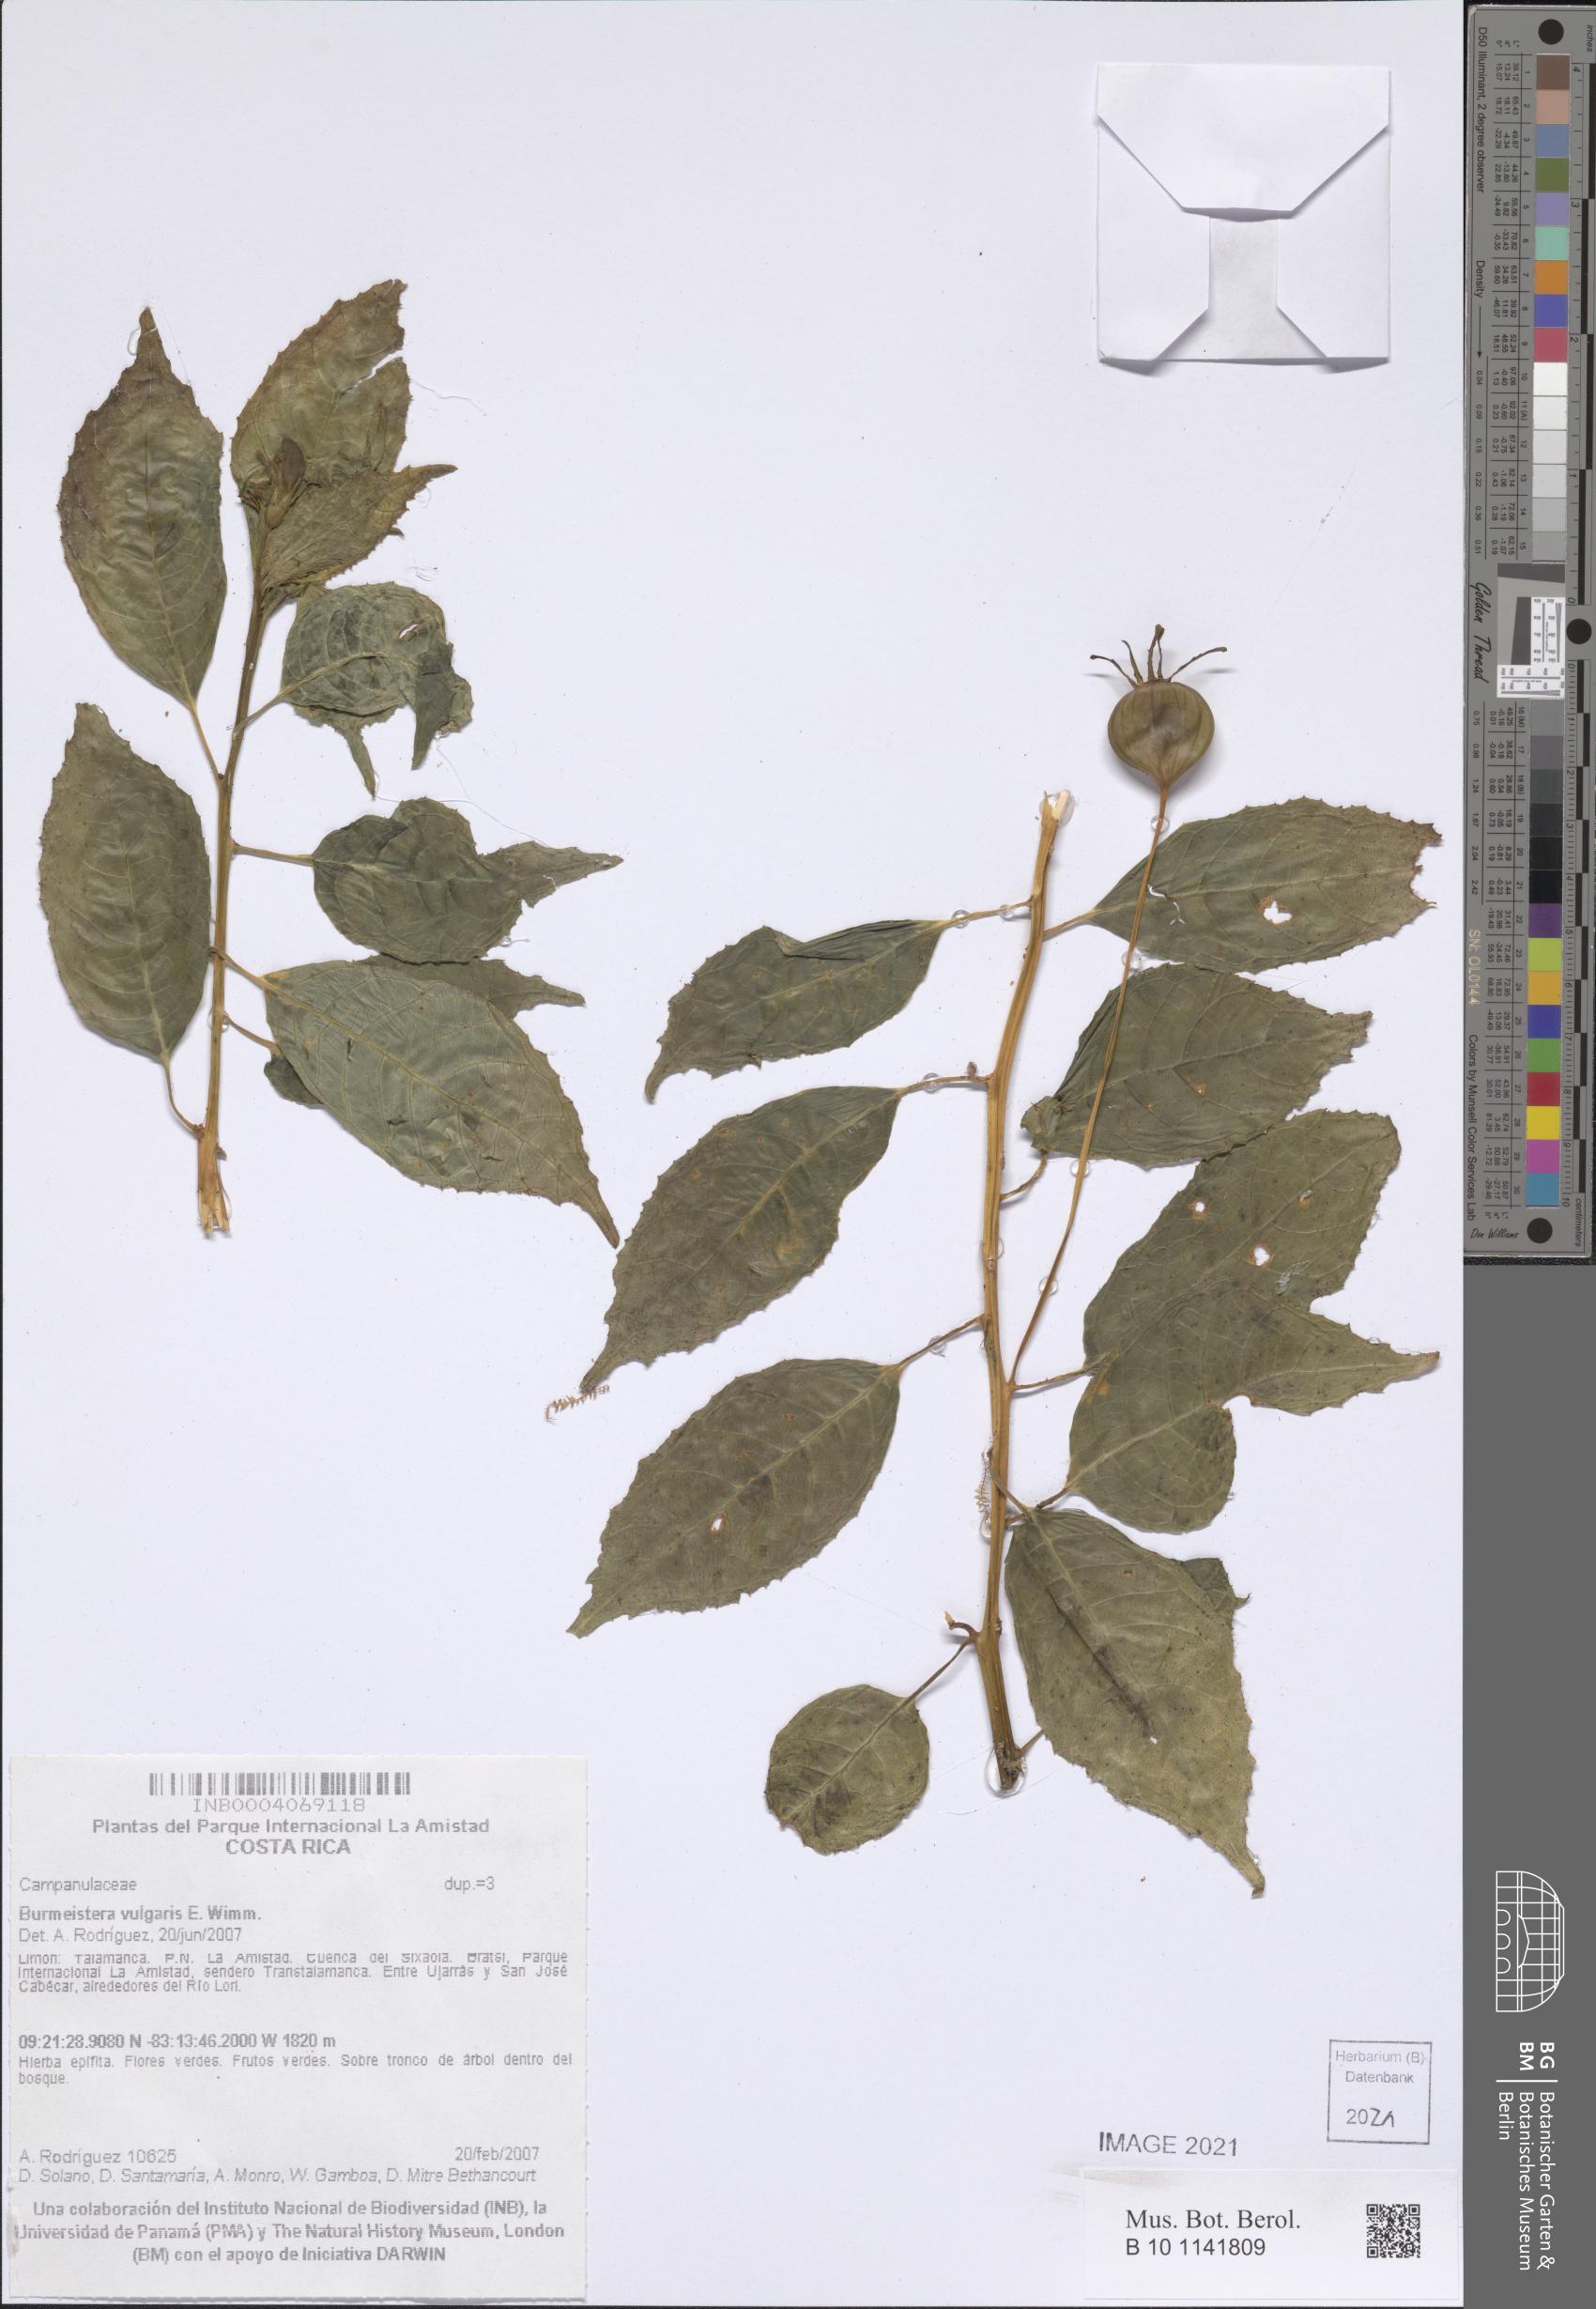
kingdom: Plantae
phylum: Tracheophyta
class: Magnoliopsida
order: Asterales
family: Campanulaceae
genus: Burmeistera
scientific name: Burmeistera vulgaris
